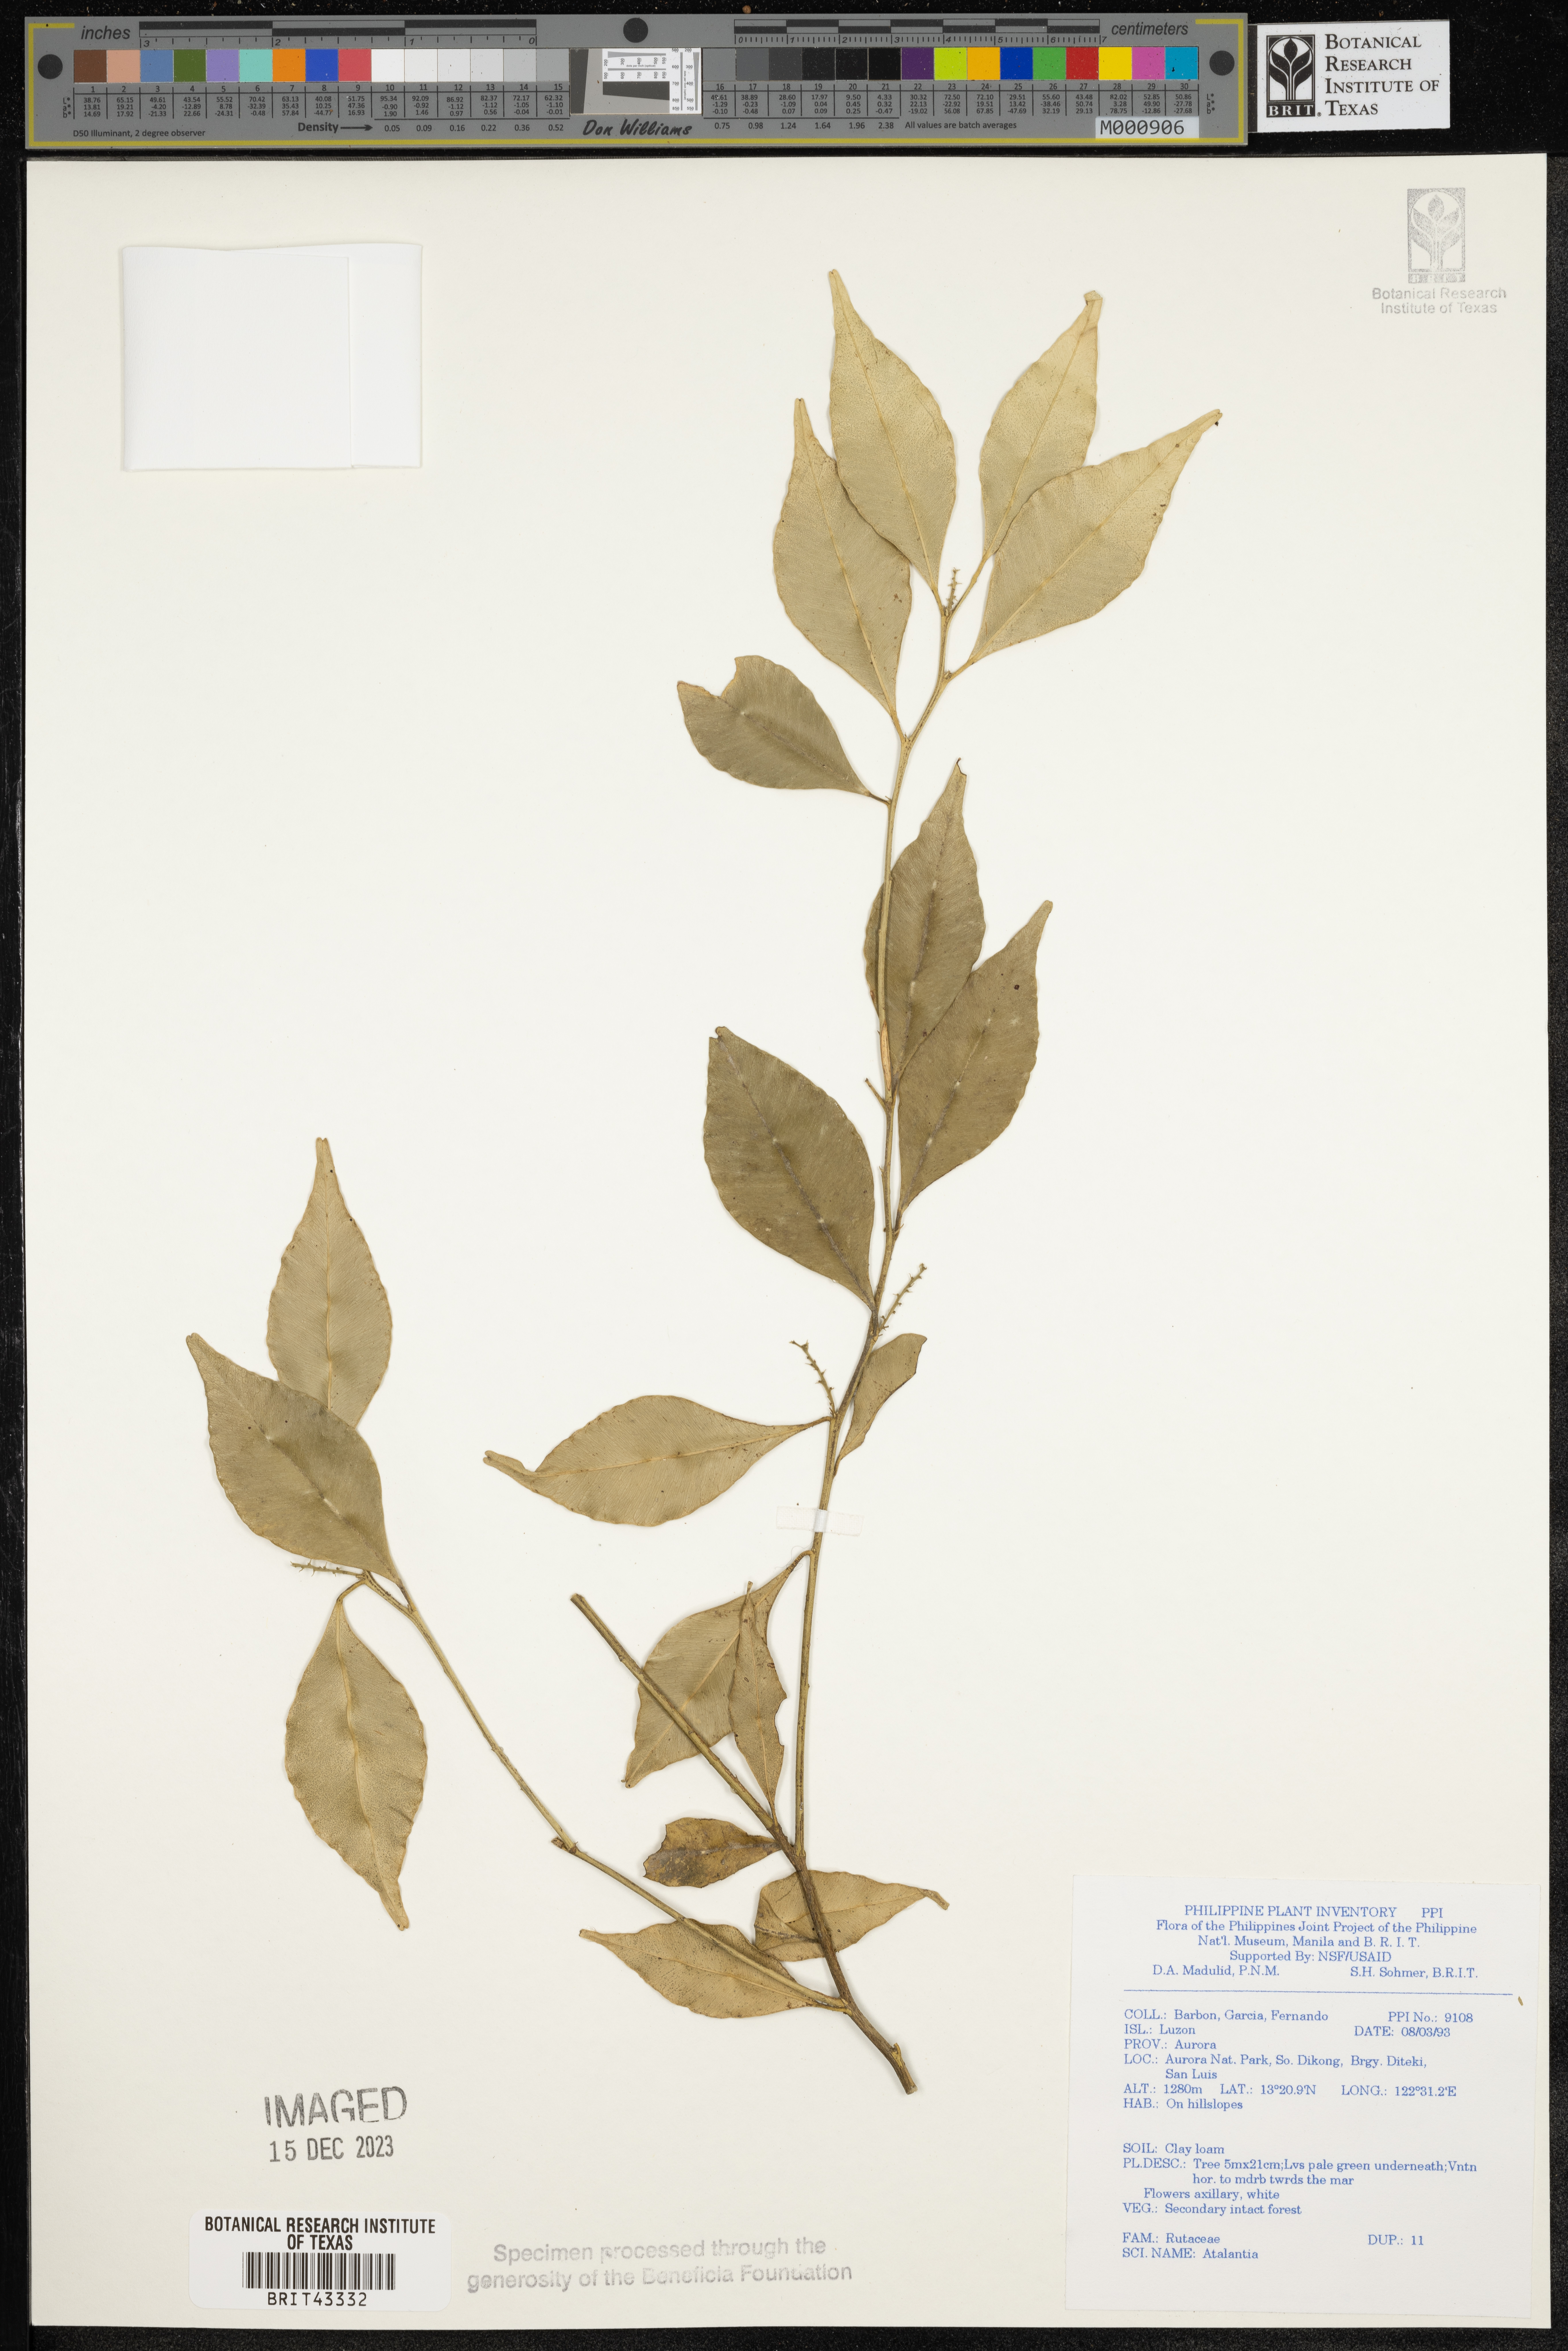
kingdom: Plantae
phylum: Tracheophyta
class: Magnoliopsida
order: Sapindales
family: Rutaceae
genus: Atalantia
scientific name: Atalantia
